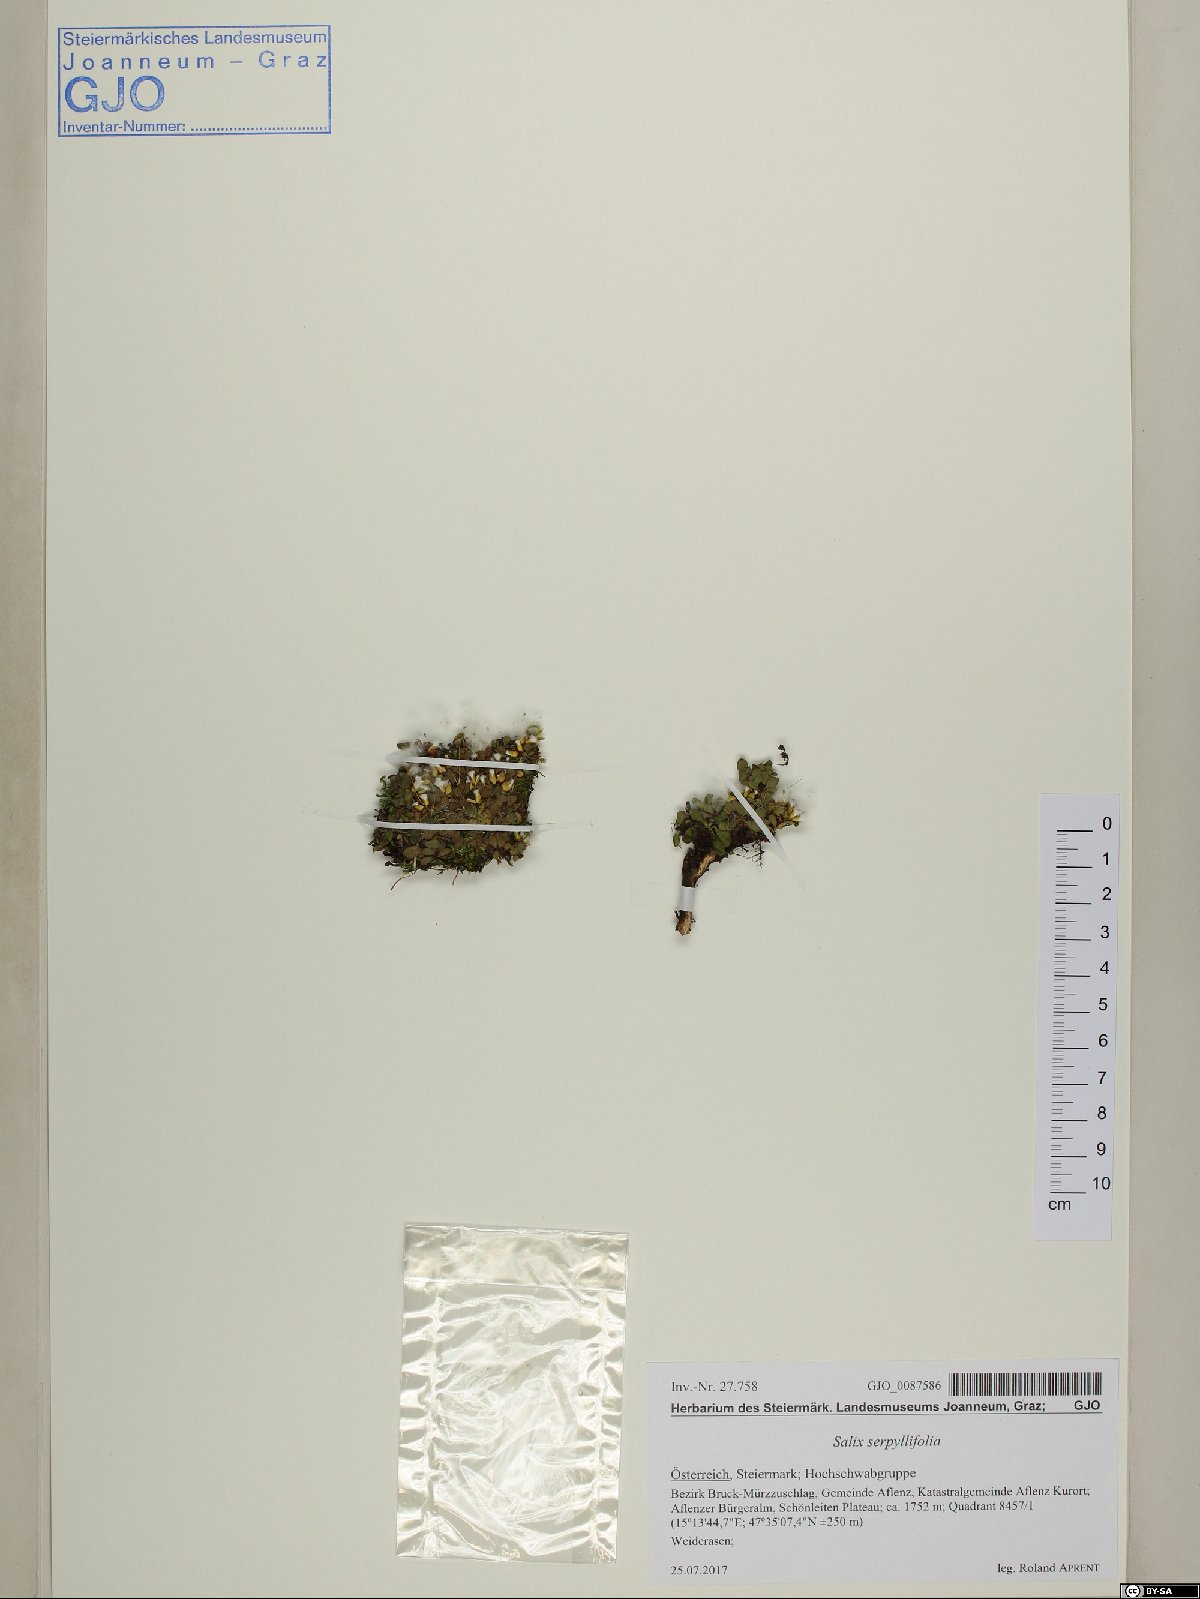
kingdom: Plantae
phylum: Tracheophyta
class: Magnoliopsida
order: Malpighiales
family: Salicaceae
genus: Salix
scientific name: Salix serpillifolia
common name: Thyme-leaf willow
